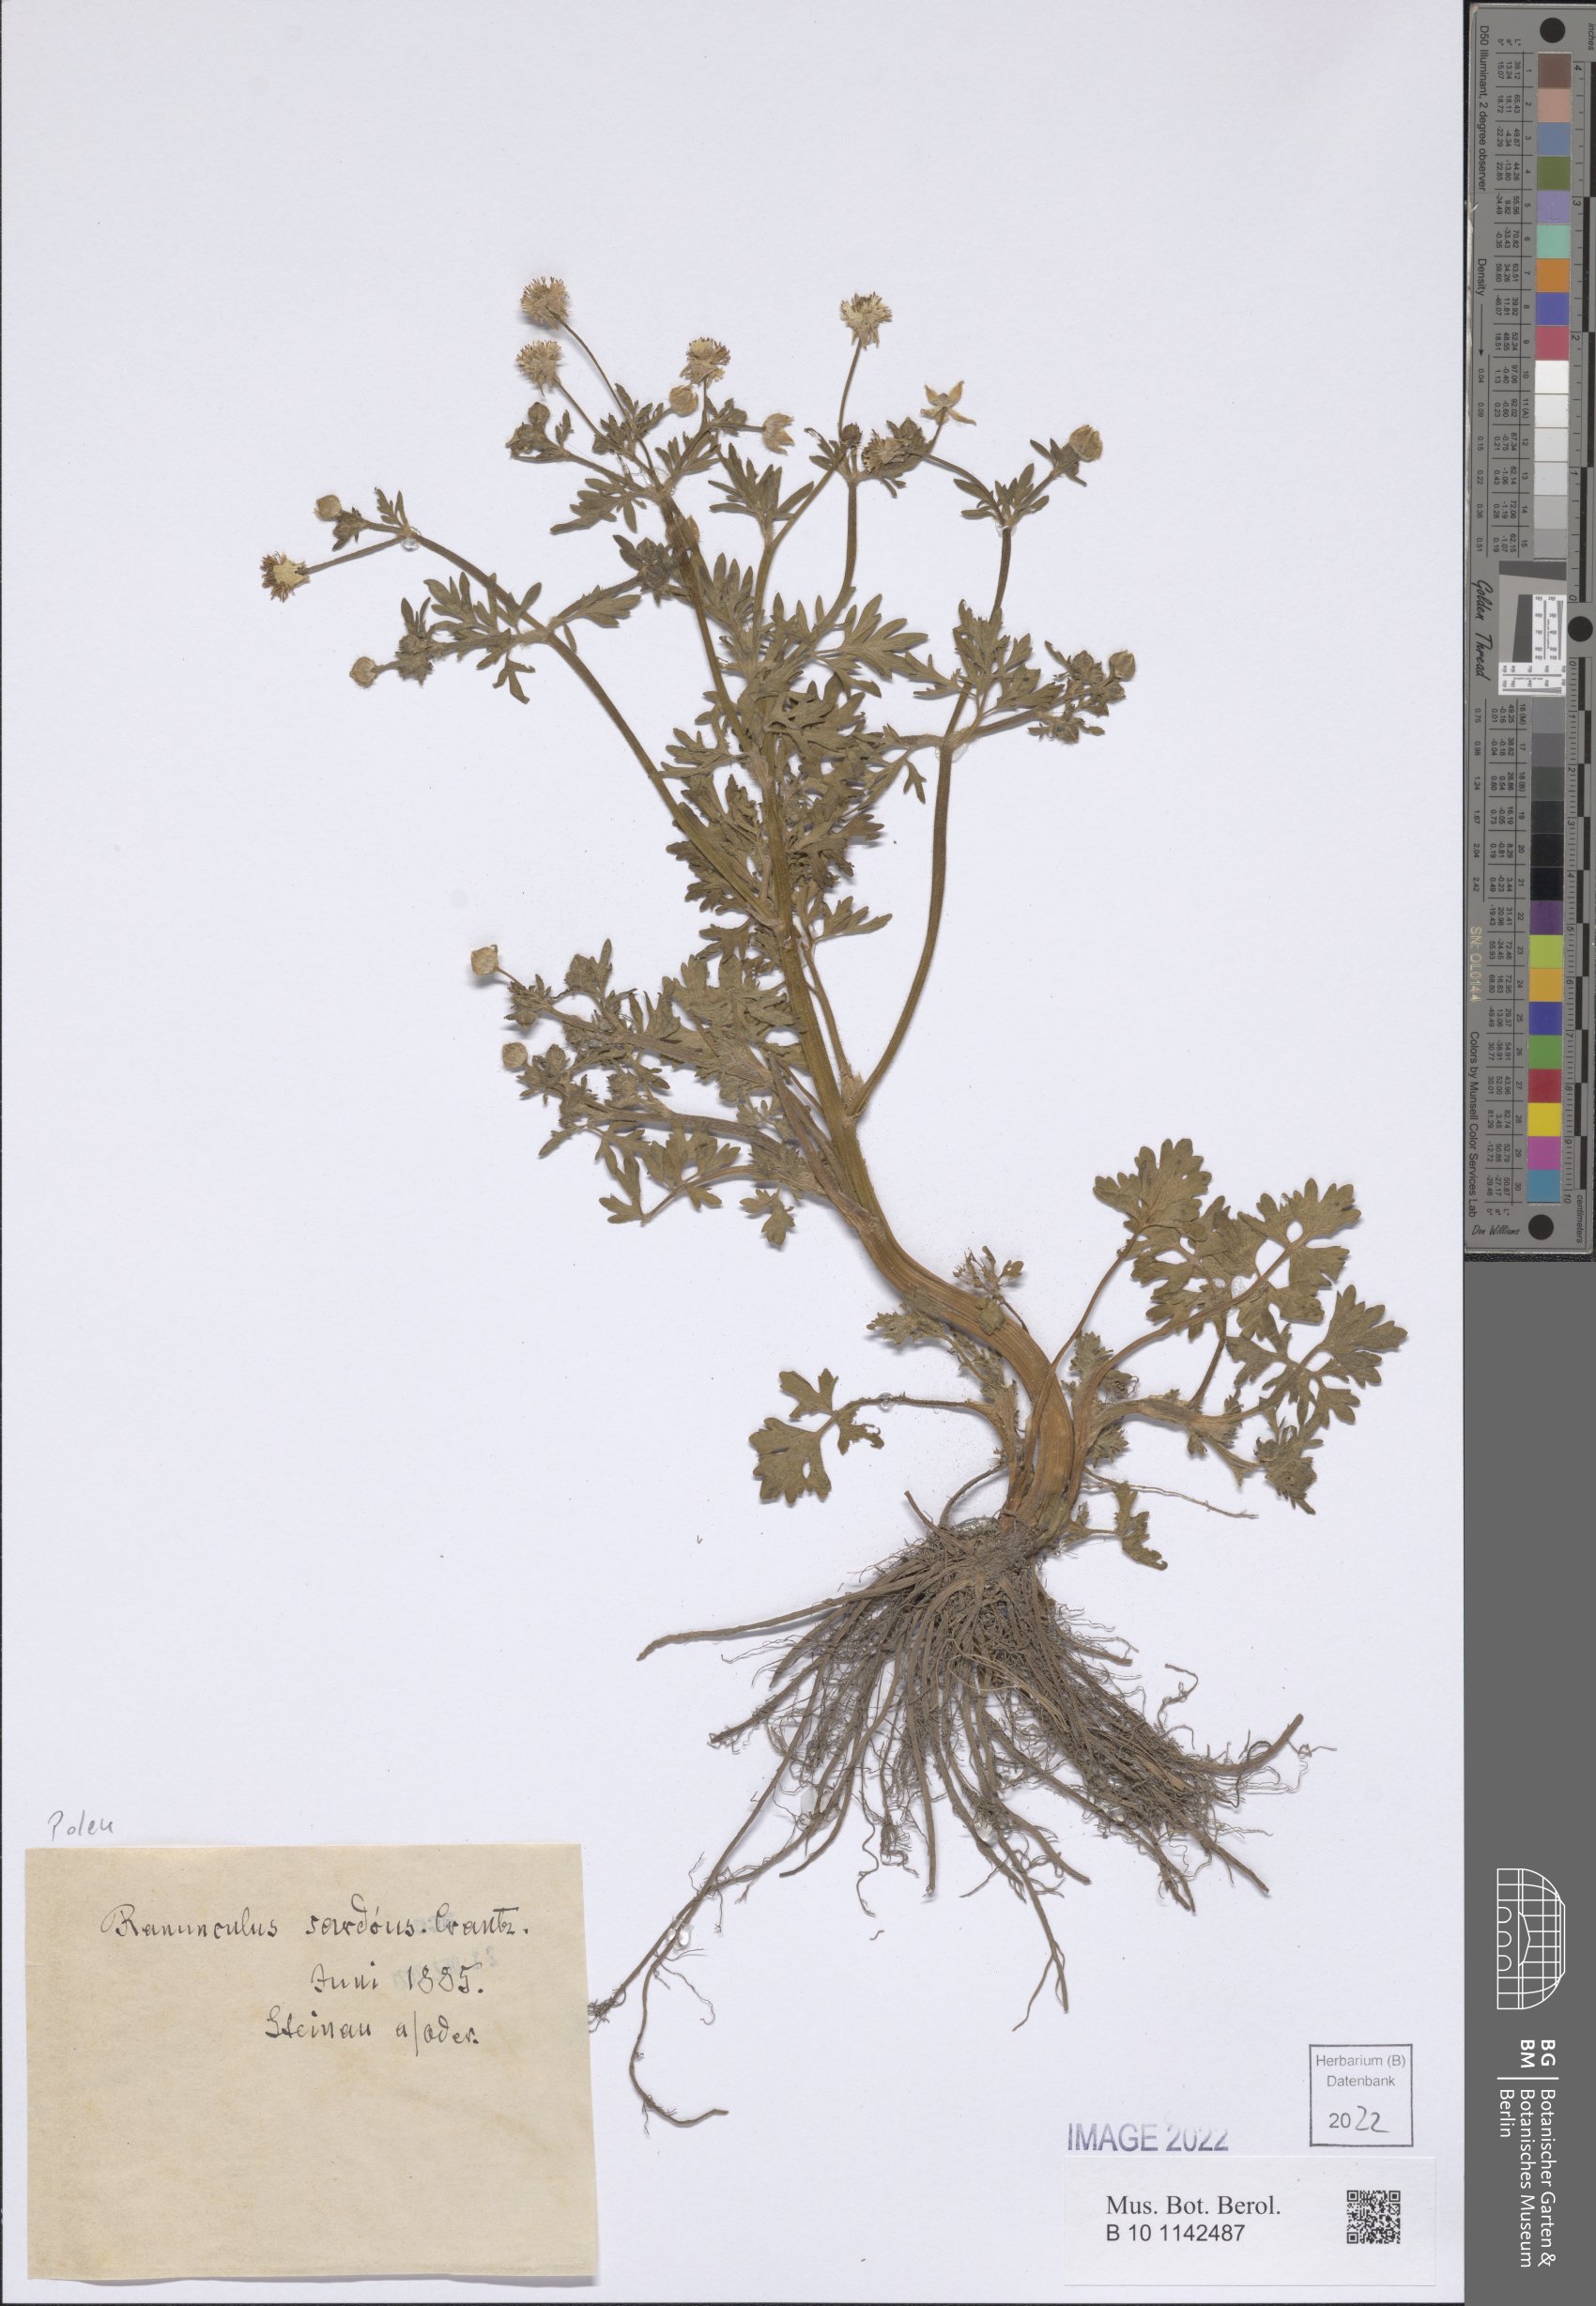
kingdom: Plantae
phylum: Tracheophyta
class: Magnoliopsida
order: Ranunculales
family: Ranunculaceae
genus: Ranunculus
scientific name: Ranunculus sardous
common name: Hairy buttercup
